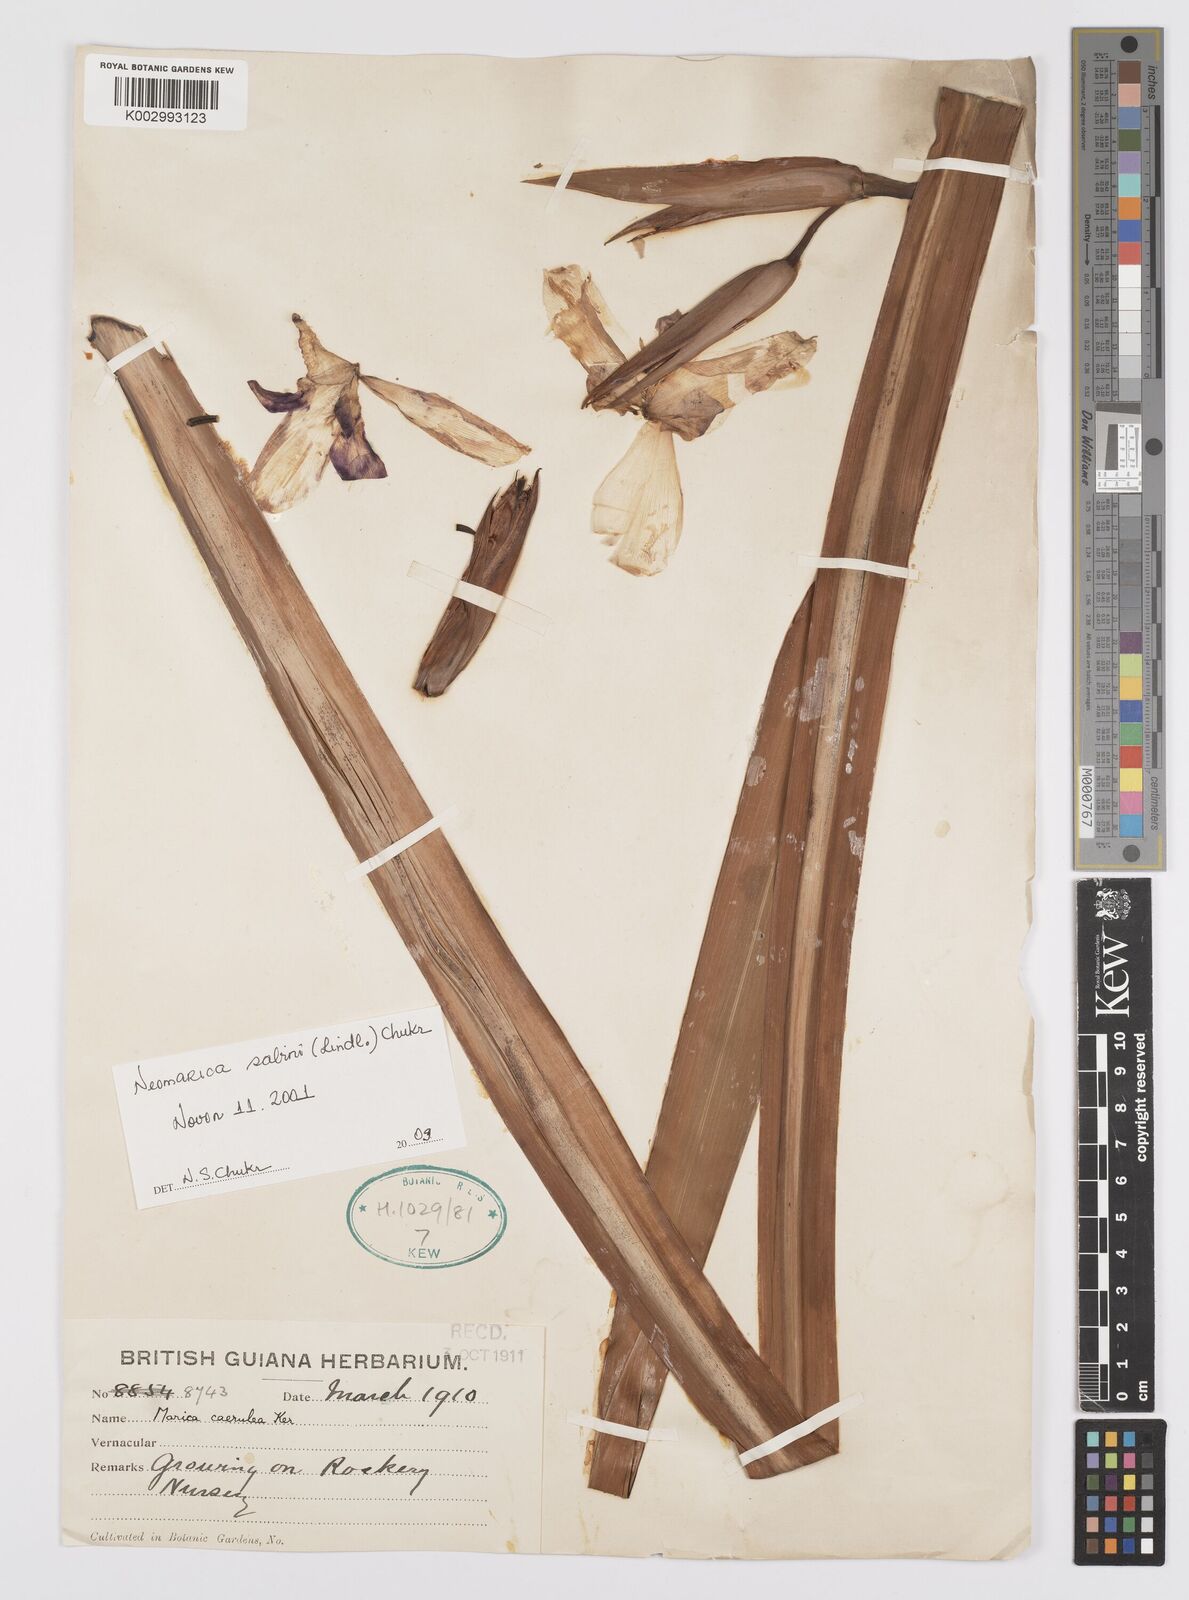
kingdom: Plantae
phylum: Tracheophyta
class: Liliopsida
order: Asparagales
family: Iridaceae
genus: Trimezia
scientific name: Trimezia sabini
